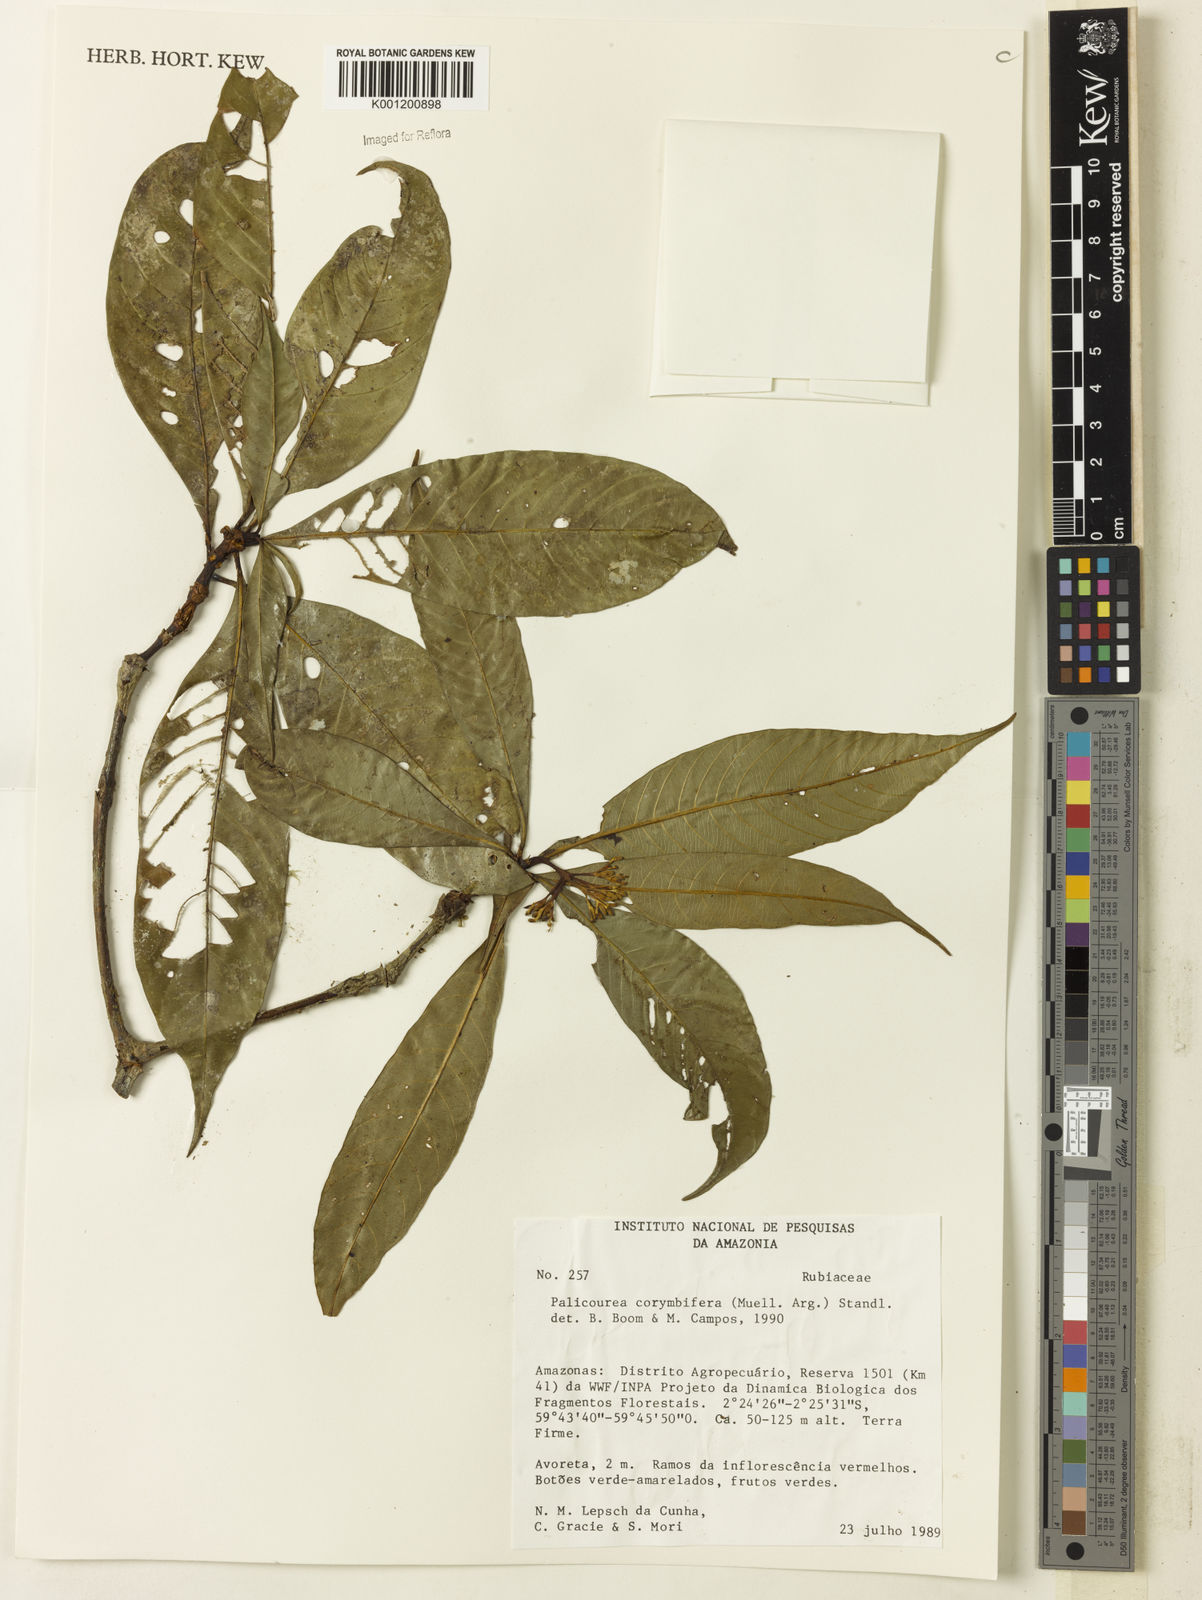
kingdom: Plantae
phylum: Tracheophyta
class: Magnoliopsida
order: Gentianales
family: Rubiaceae
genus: Palicourea
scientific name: Palicourea
